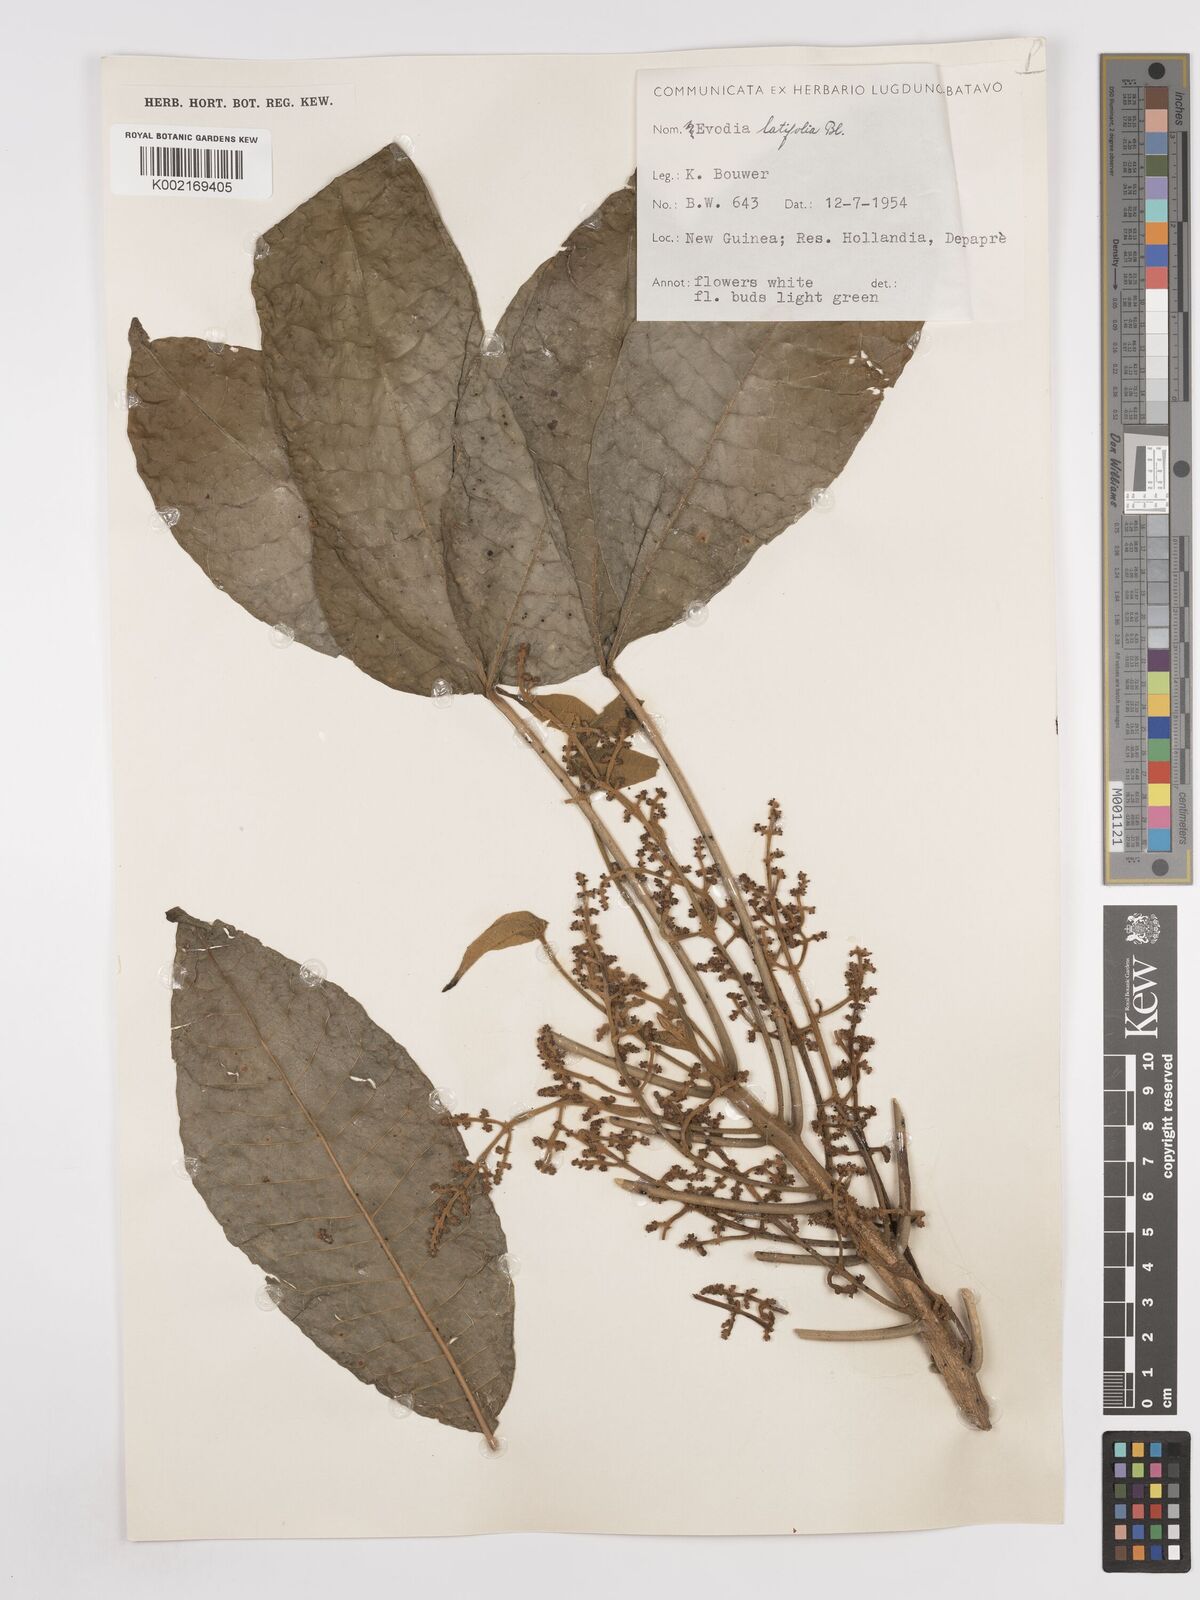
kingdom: Plantae
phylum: Tracheophyta
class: Magnoliopsida
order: Sapindales
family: Rutaceae
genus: Melicope
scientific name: Melicope latifolia
